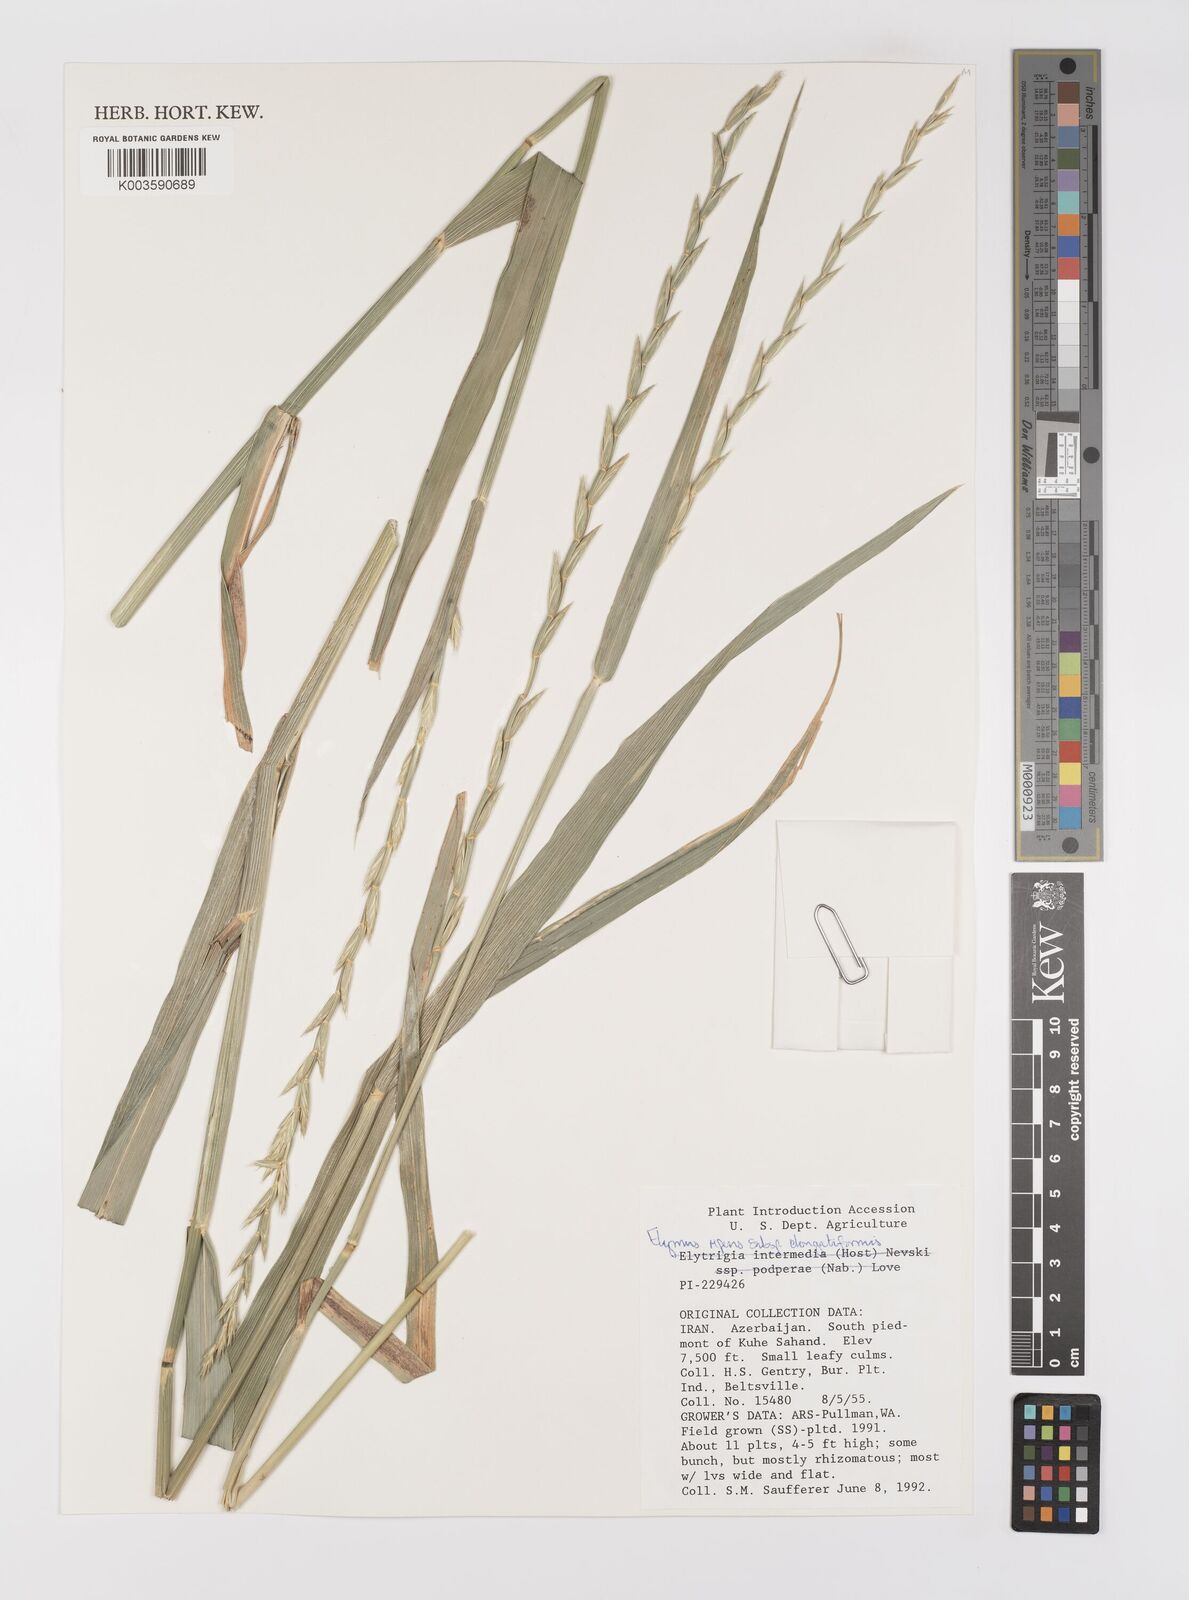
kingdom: Plantae
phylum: Tracheophyta
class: Liliopsida
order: Poales
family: Poaceae
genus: Elymus
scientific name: Elymus repens
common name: Quackgrass
